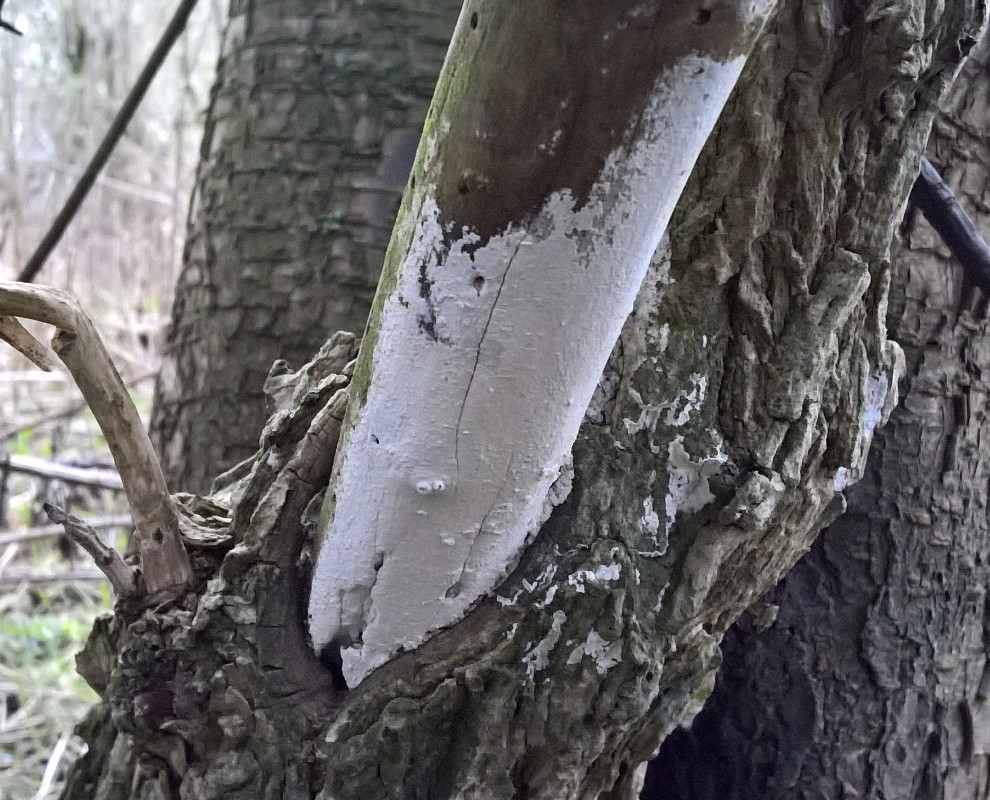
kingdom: Fungi
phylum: Basidiomycota
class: Agaricomycetes
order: Corticiales
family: Corticiaceae
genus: Lyomyces
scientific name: Lyomyces sambuci
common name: almindelig hyldehinde
